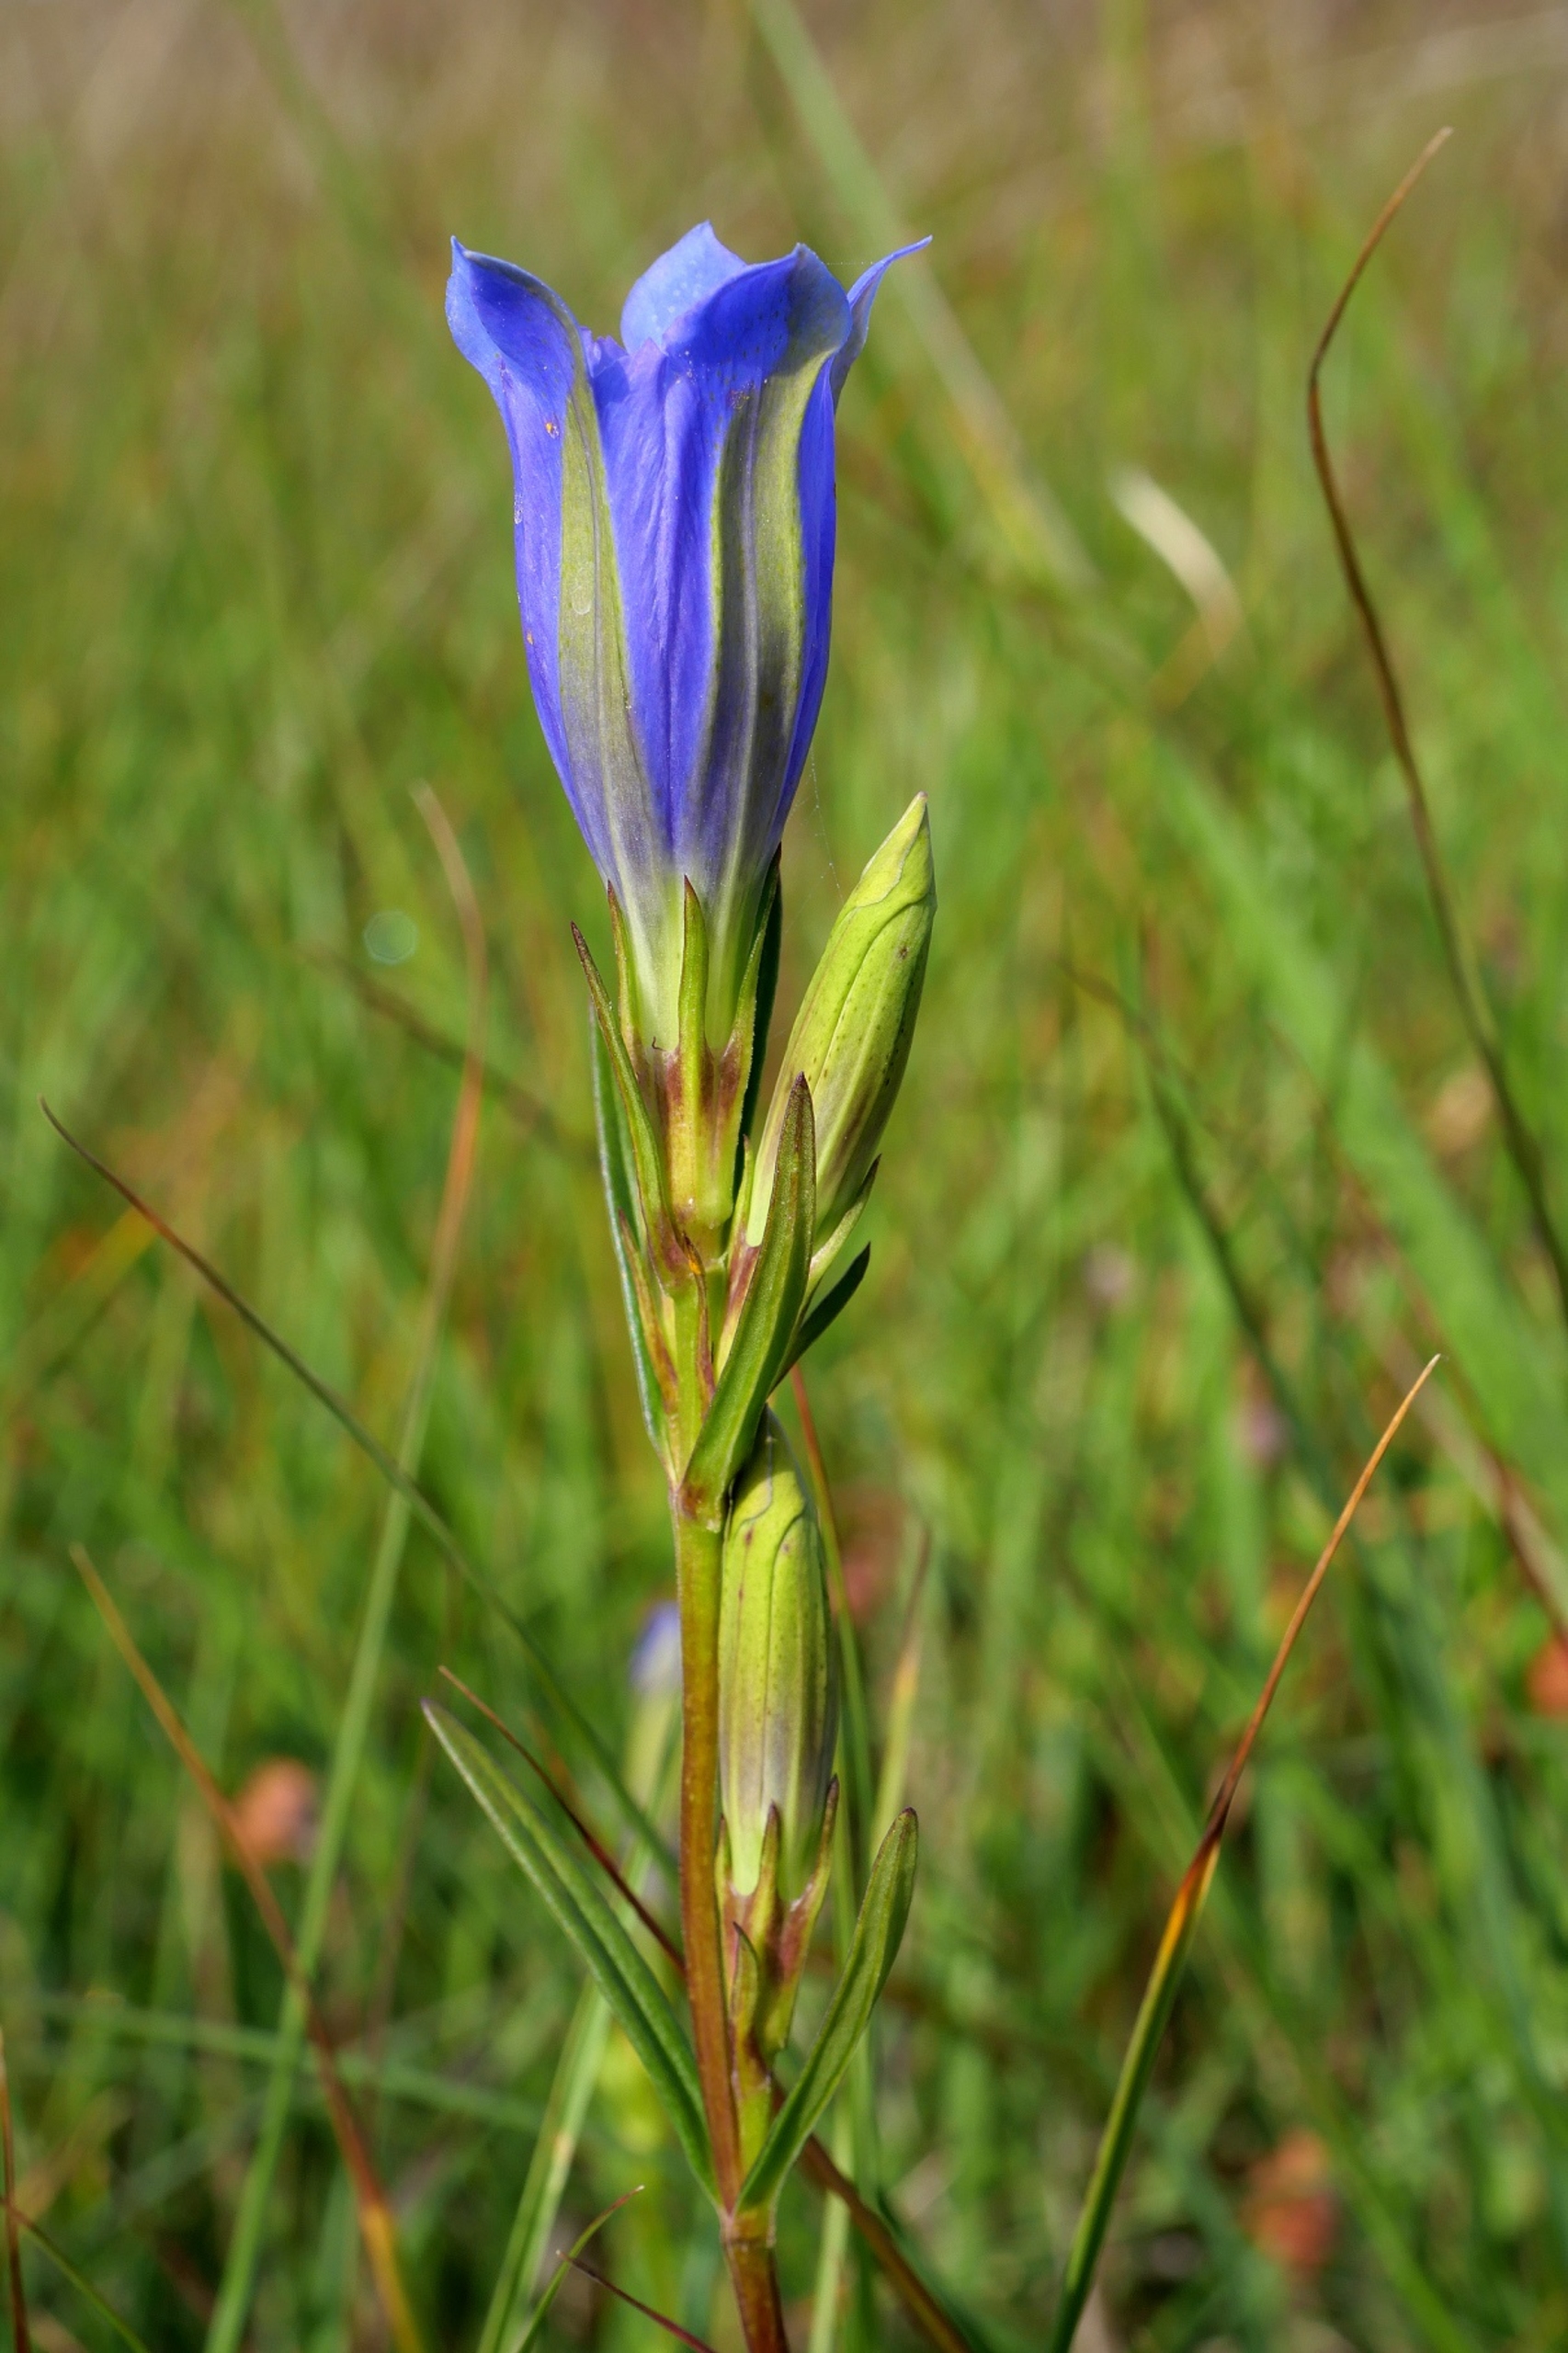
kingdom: Plantae
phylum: Tracheophyta
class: Magnoliopsida
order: Gentianales
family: Gentianaceae
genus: Gentiana
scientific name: Gentiana pneumonanthe
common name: Klokke-ensian
